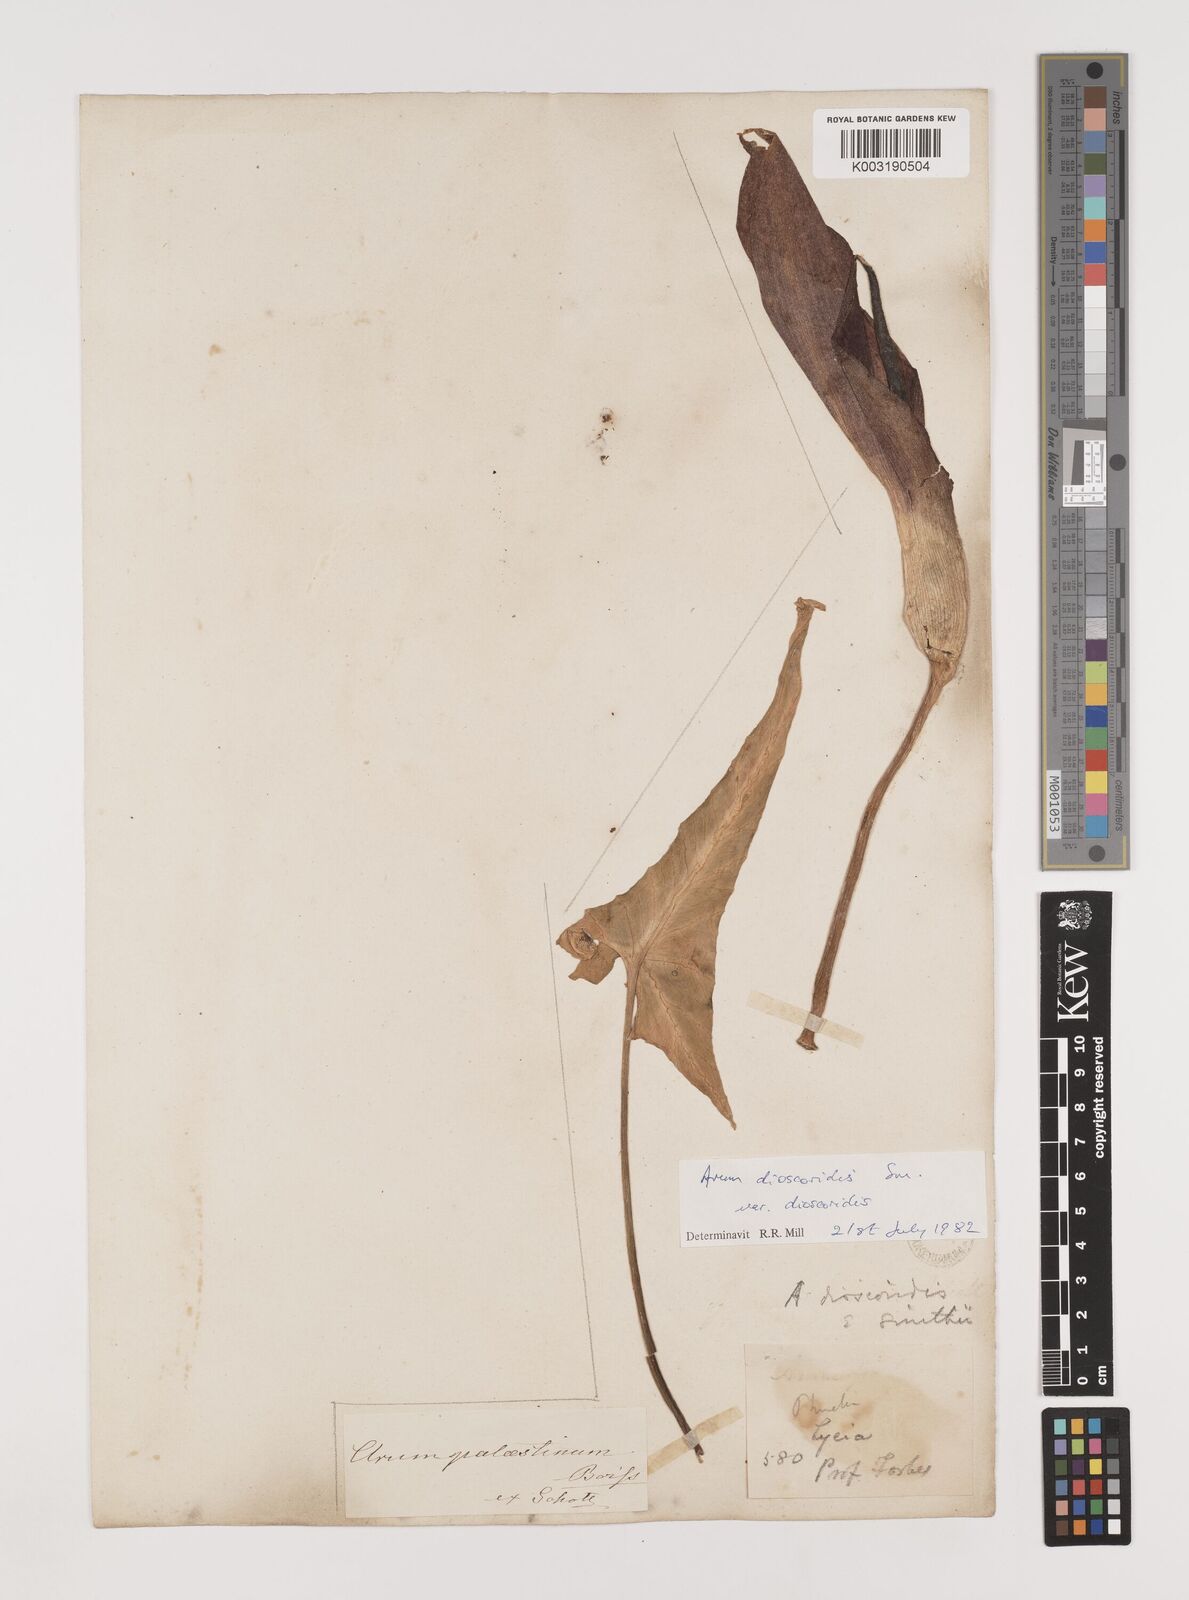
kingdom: Plantae
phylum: Tracheophyta
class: Liliopsida
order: Alismatales
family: Araceae
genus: Arum
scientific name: Arum dioscoridis
